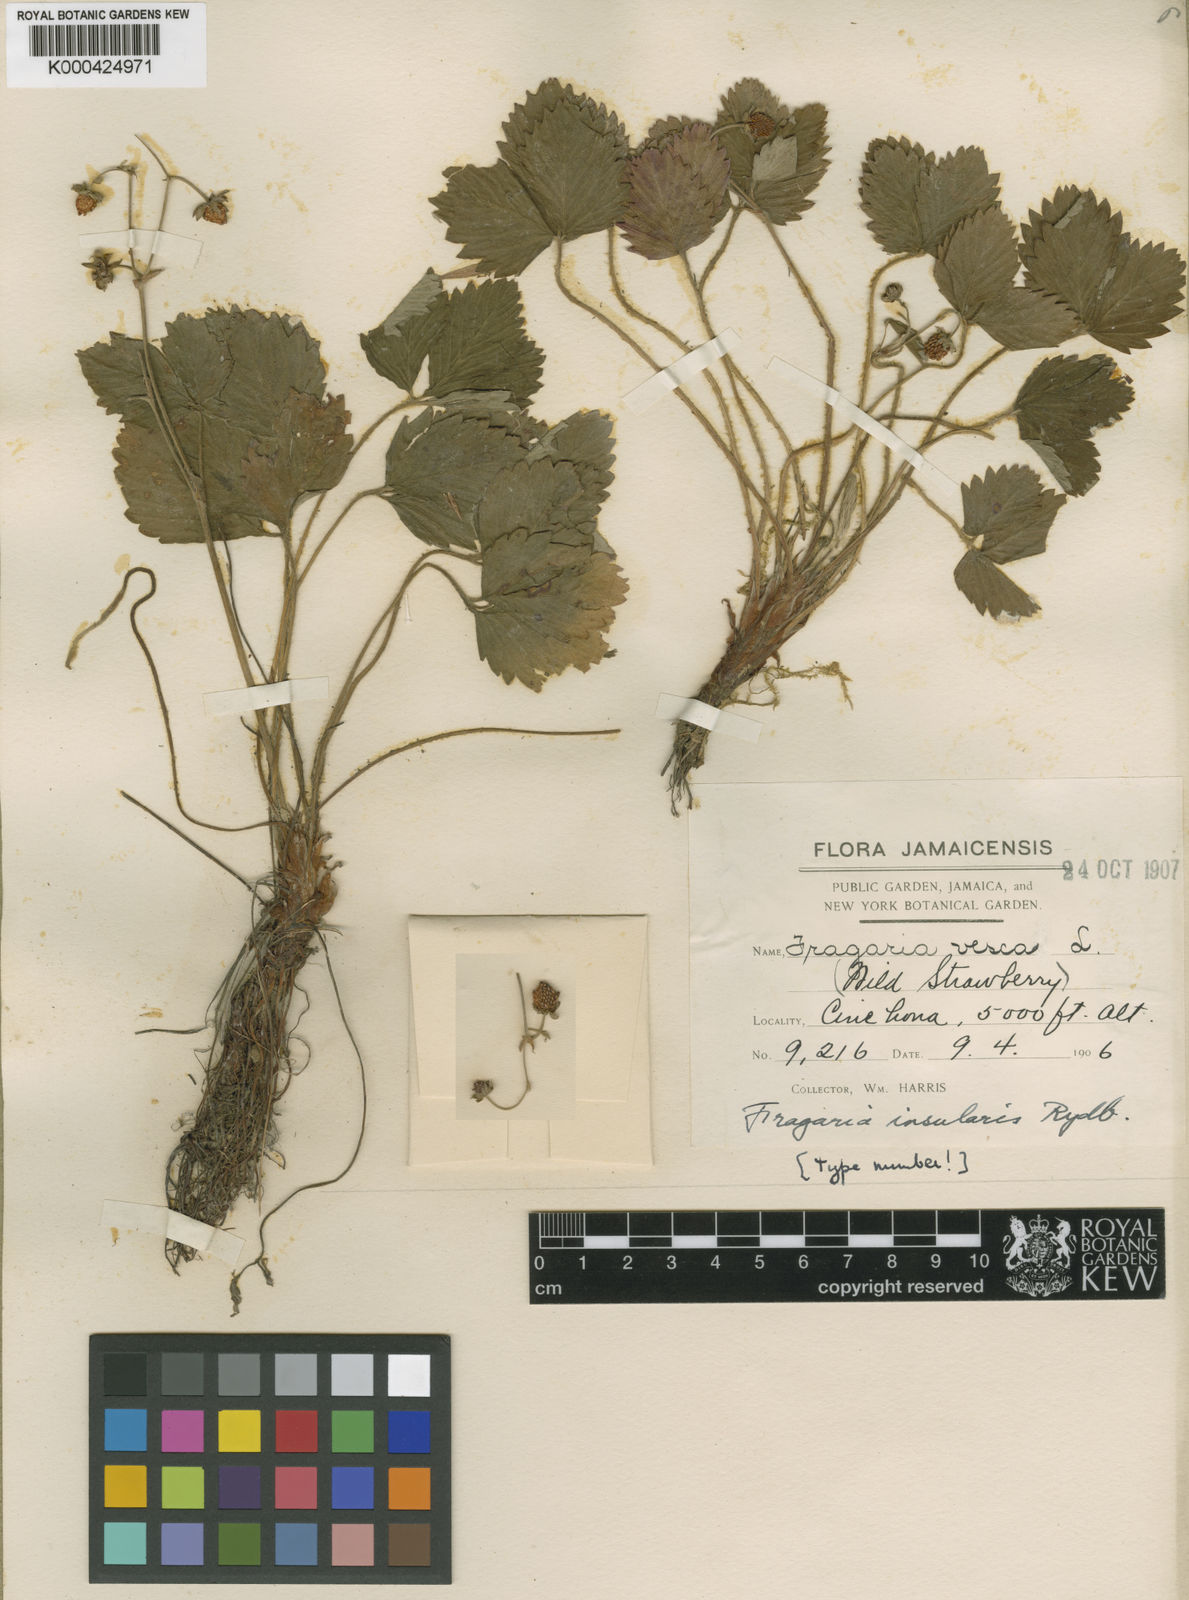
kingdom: Plantae
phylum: Tracheophyta
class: Magnoliopsida
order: Rosales
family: Rosaceae
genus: Fragaria
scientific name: Fragaria vesca
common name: Wild strawberry
